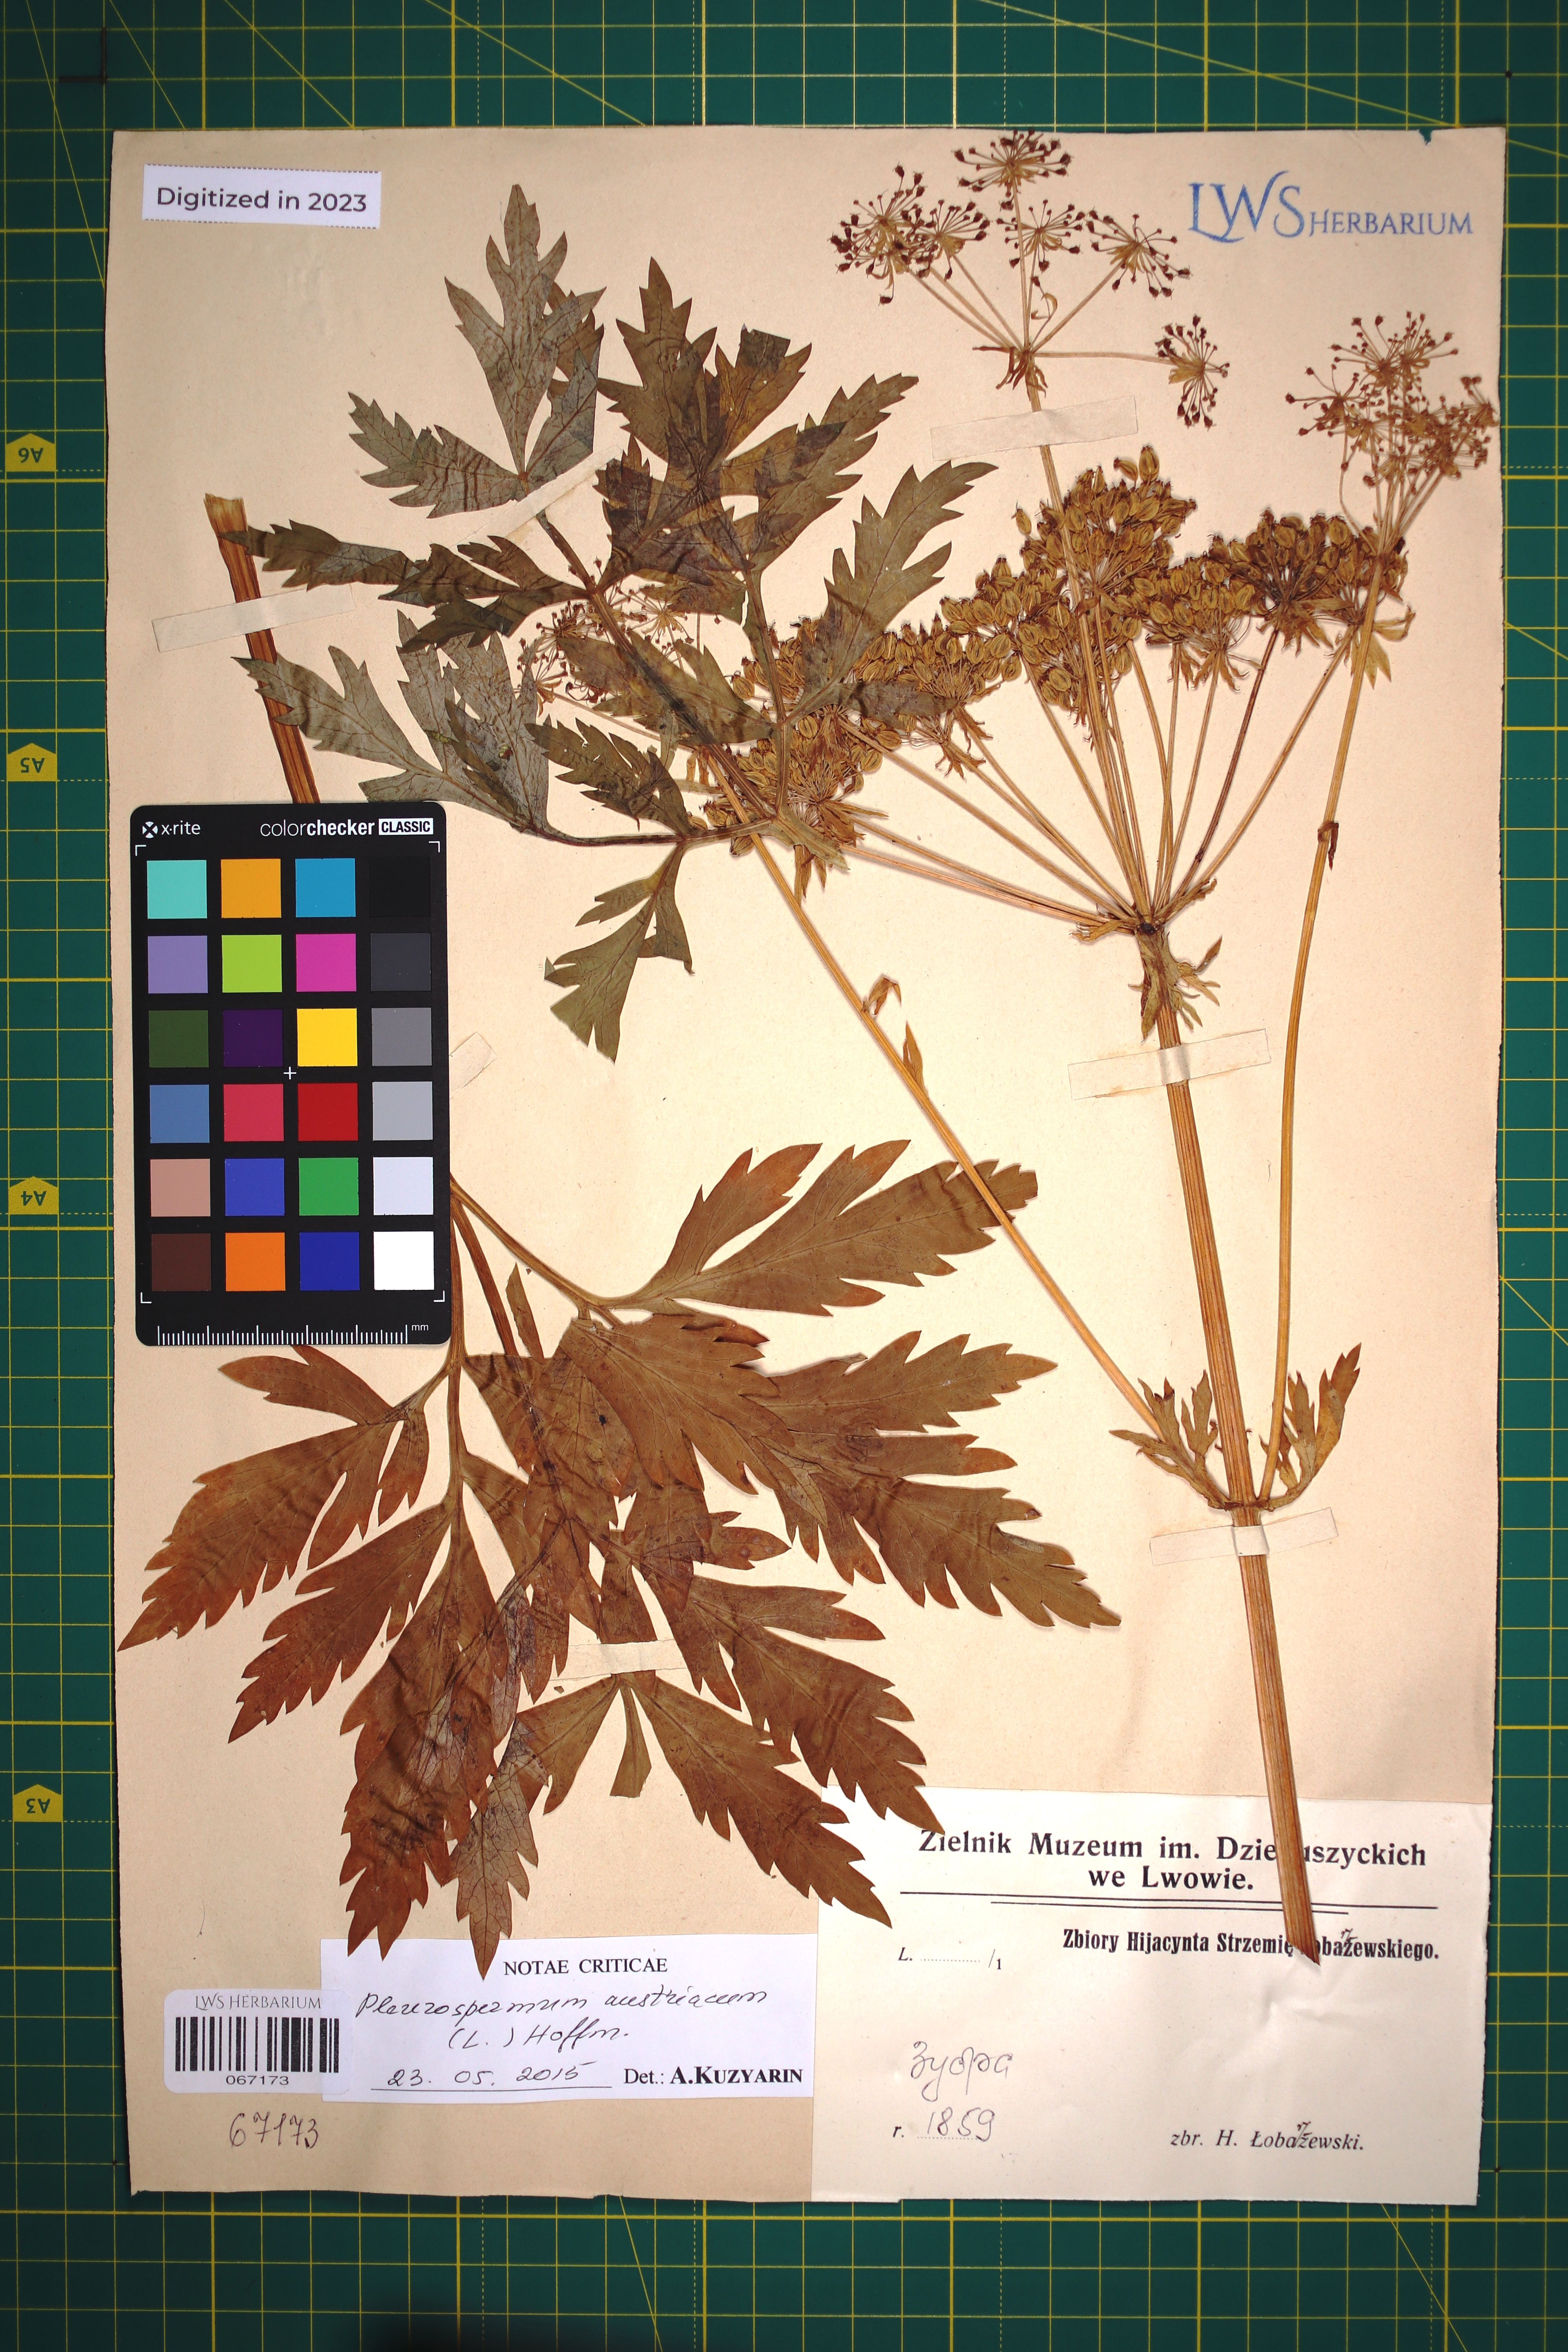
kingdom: Plantae
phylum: Tracheophyta
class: Magnoliopsida
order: Apiales
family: Apiaceae
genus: Pleurospermum
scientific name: Pleurospermum austriacum
